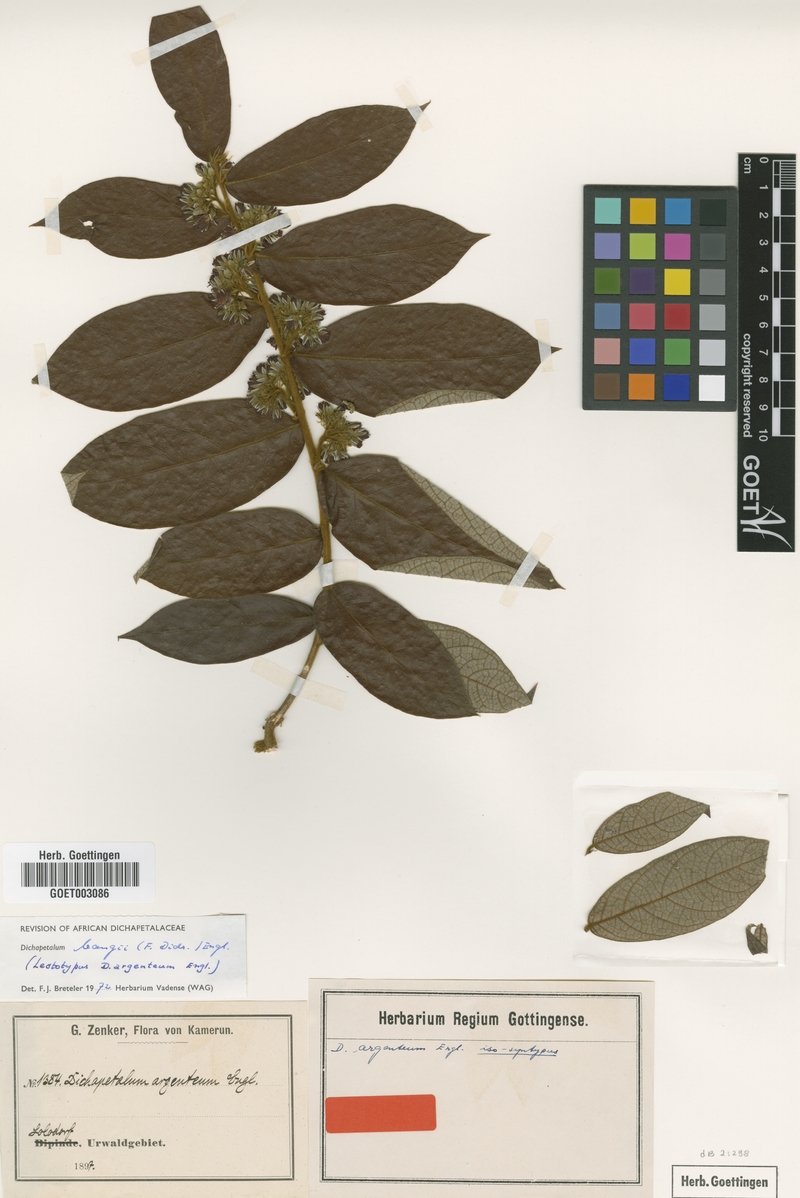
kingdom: Plantae
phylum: Tracheophyta
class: Magnoliopsida
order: Malpighiales
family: Dichapetalaceae
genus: Dichapetalum
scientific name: Dichapetalum bangii
